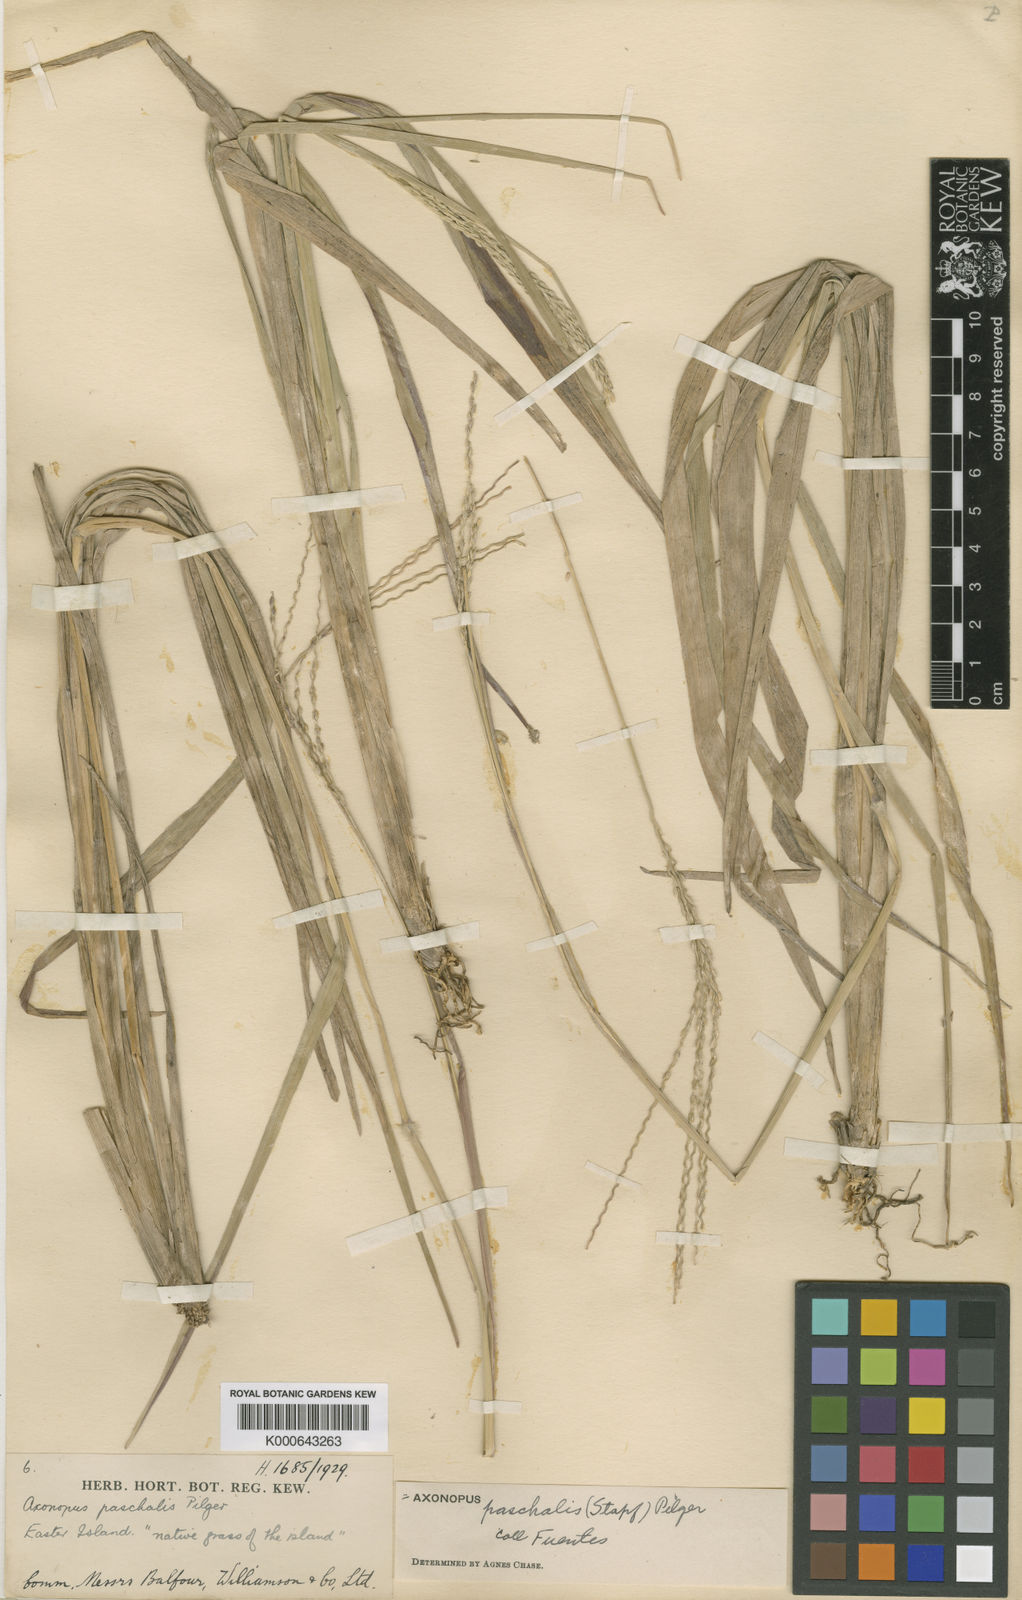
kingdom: Plantae
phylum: Tracheophyta
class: Liliopsida
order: Poales
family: Poaceae
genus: Axonopus
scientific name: Axonopus paschalis
